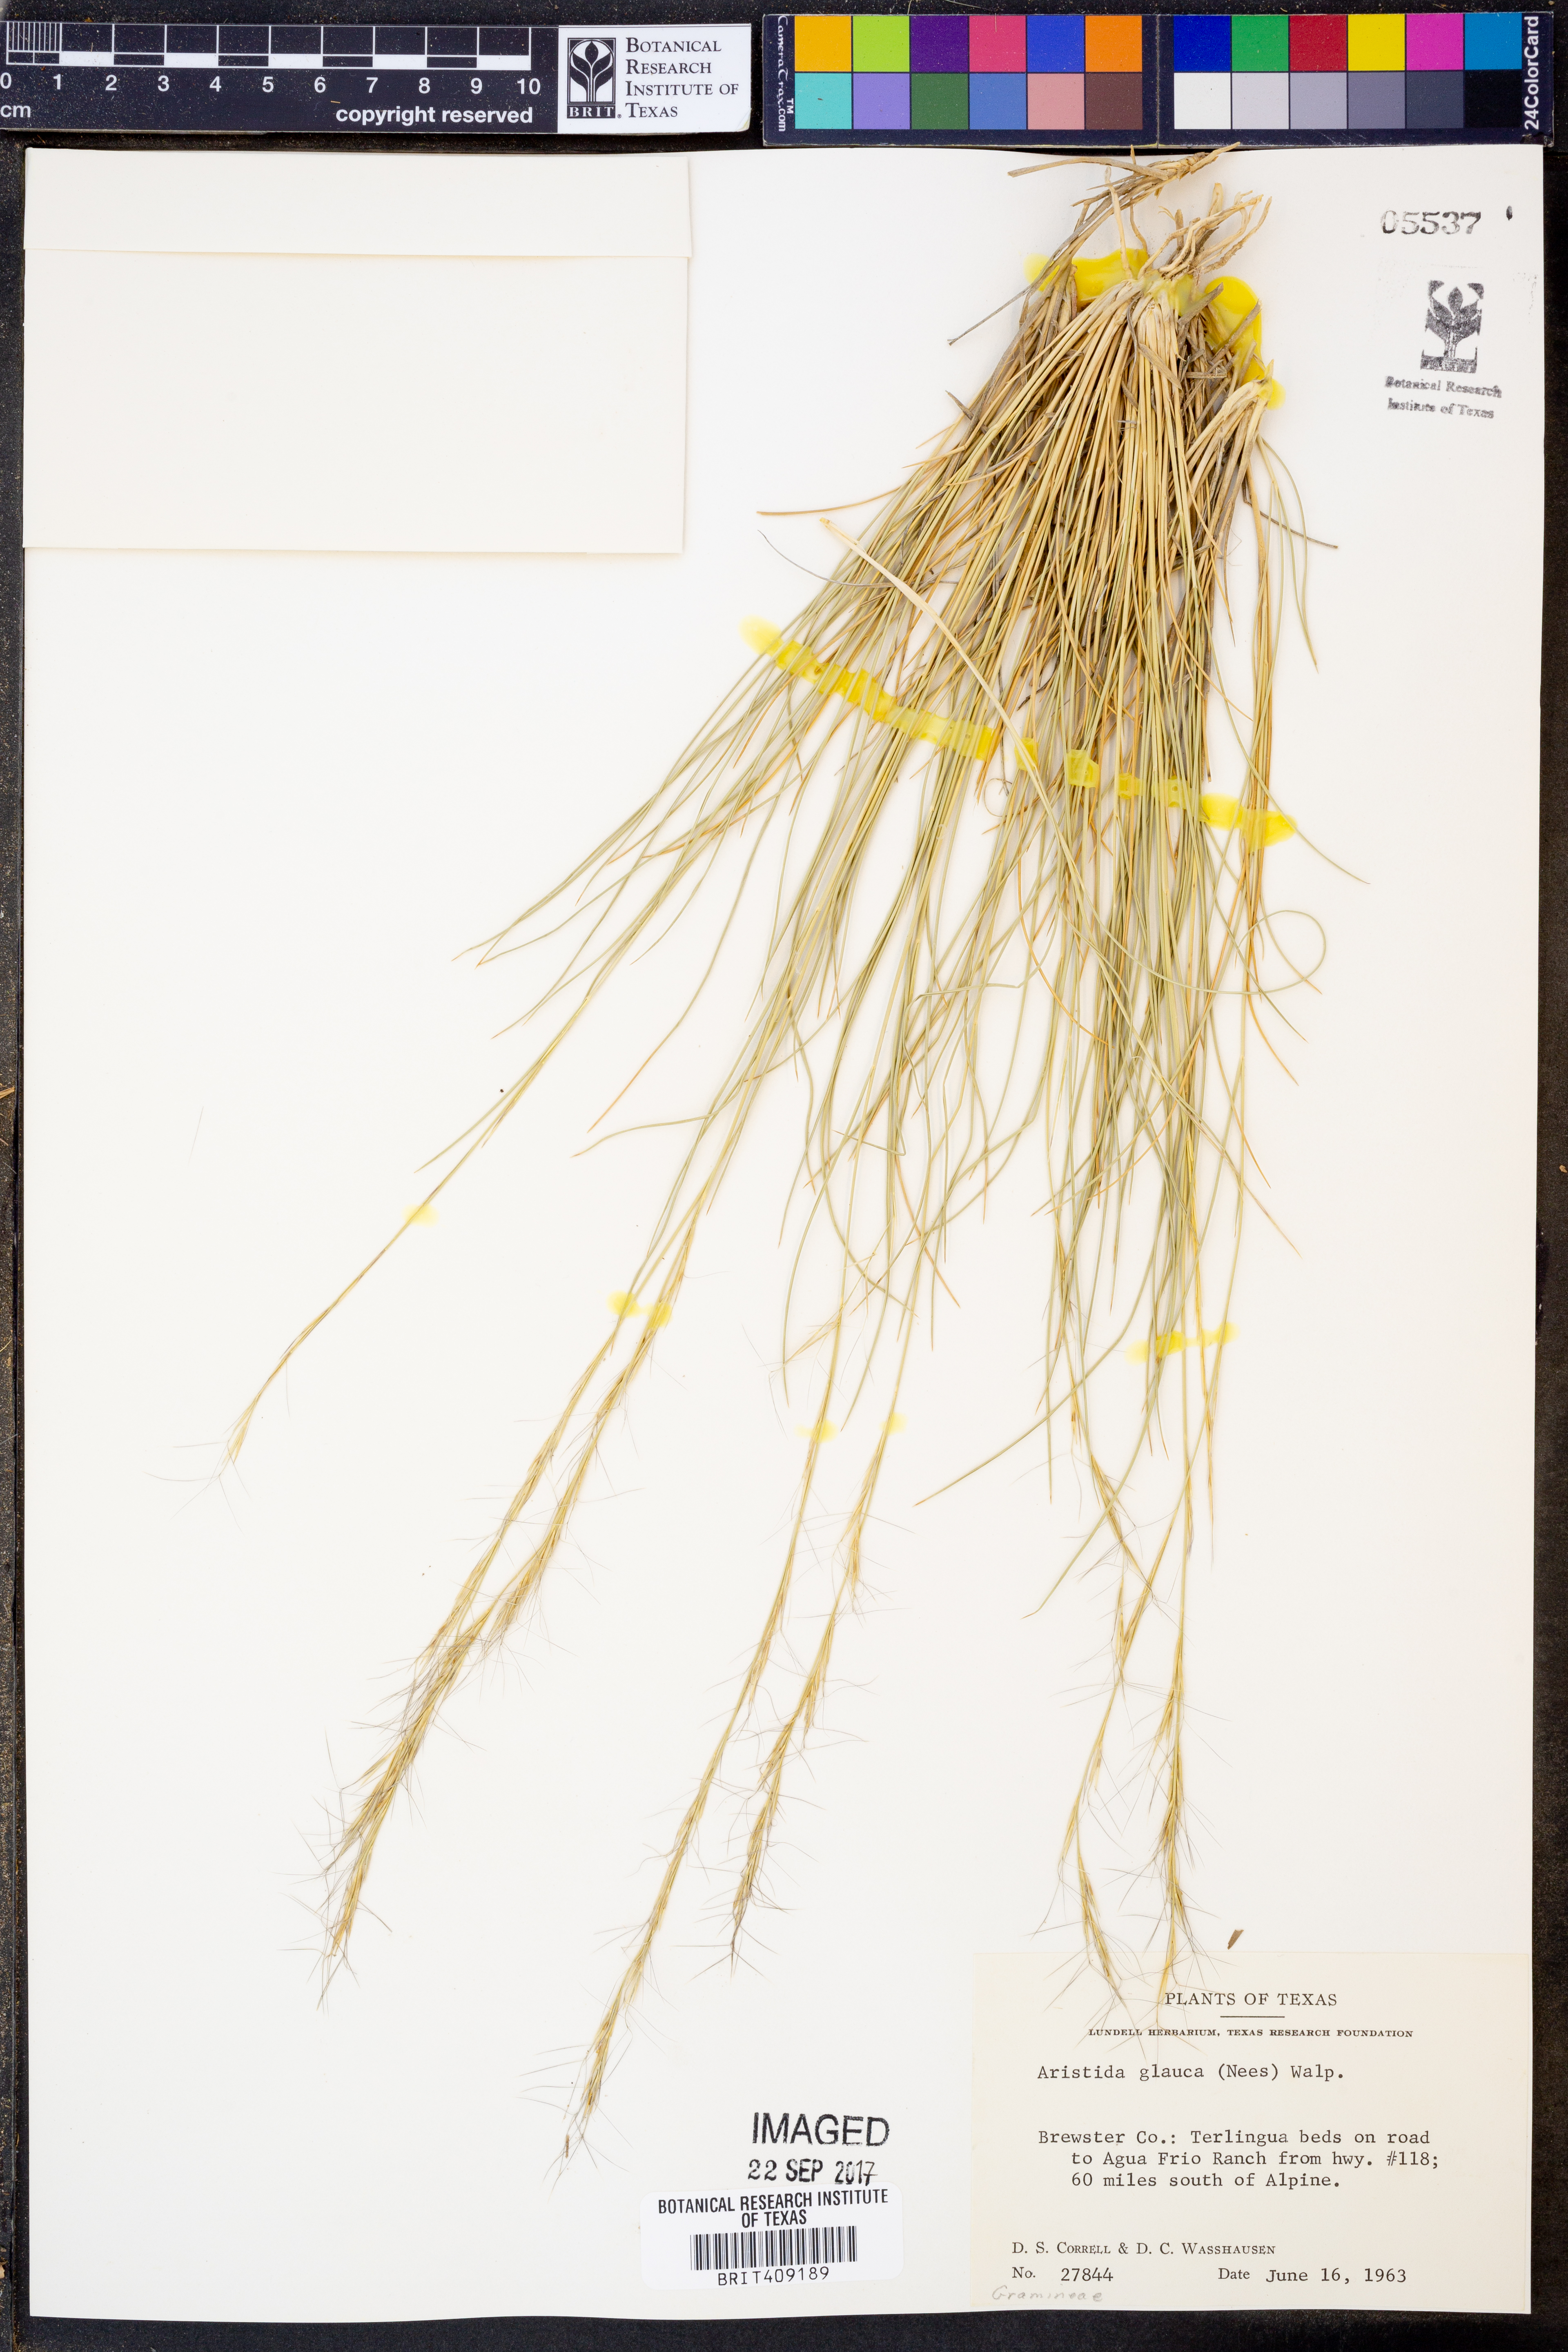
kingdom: Plantae
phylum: Tracheophyta
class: Liliopsida
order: Poales
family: Poaceae
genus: Aristida
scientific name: Aristida glauca
